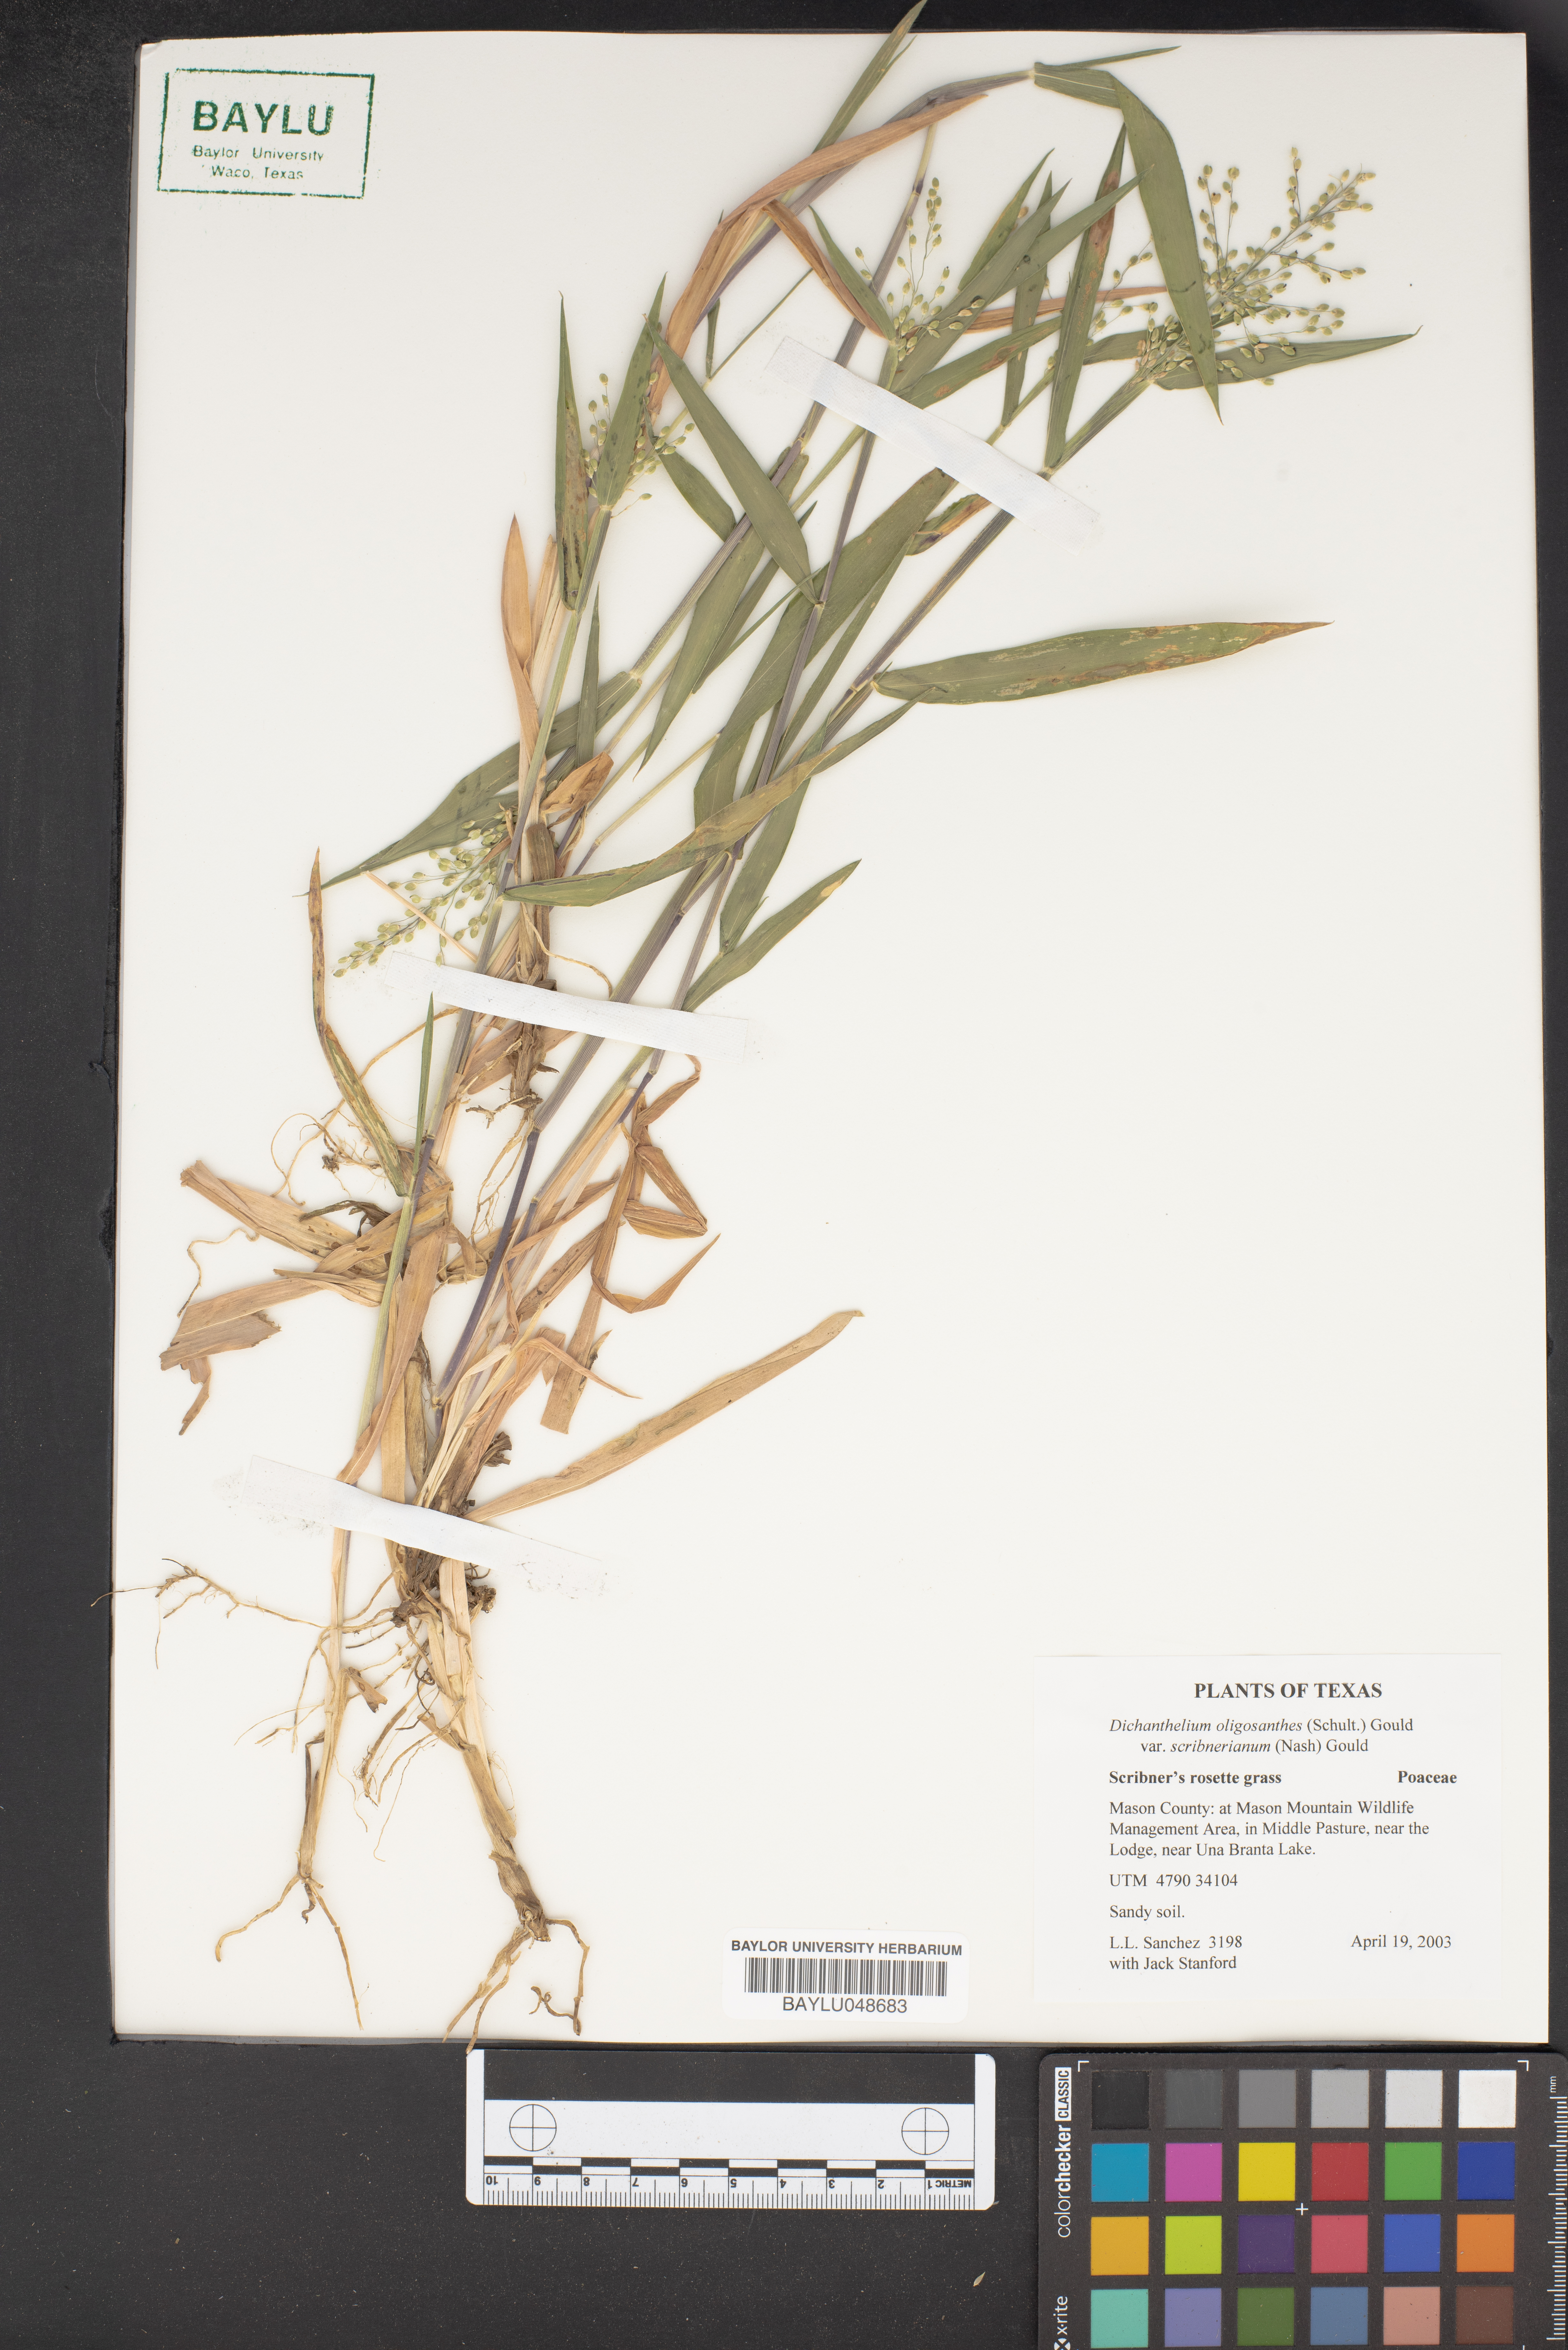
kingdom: Plantae
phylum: Tracheophyta
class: Liliopsida
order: Poales
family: Poaceae
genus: Dichanthelium
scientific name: Dichanthelium scribnerianum
